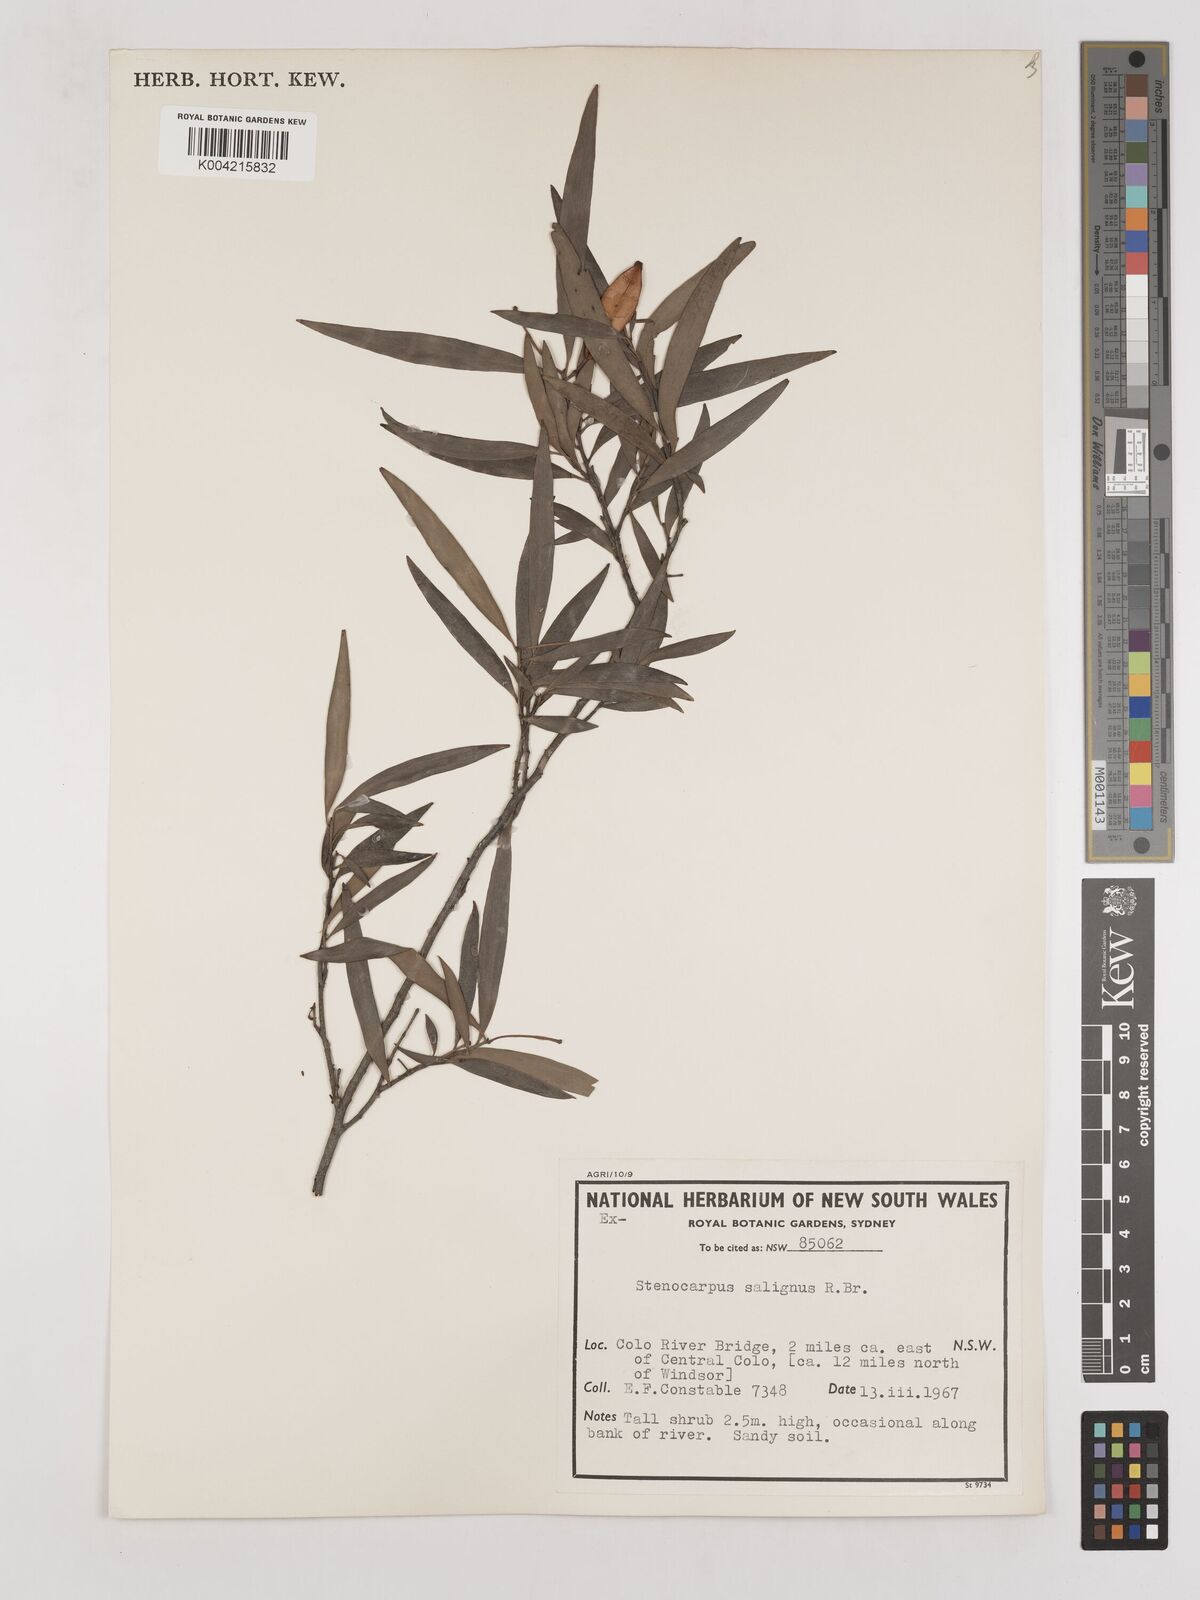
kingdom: Plantae
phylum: Tracheophyta
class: Magnoliopsida
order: Proteales
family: Proteaceae
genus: Stenocarpus
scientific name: Stenocarpus salignus
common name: Red silky-oak
